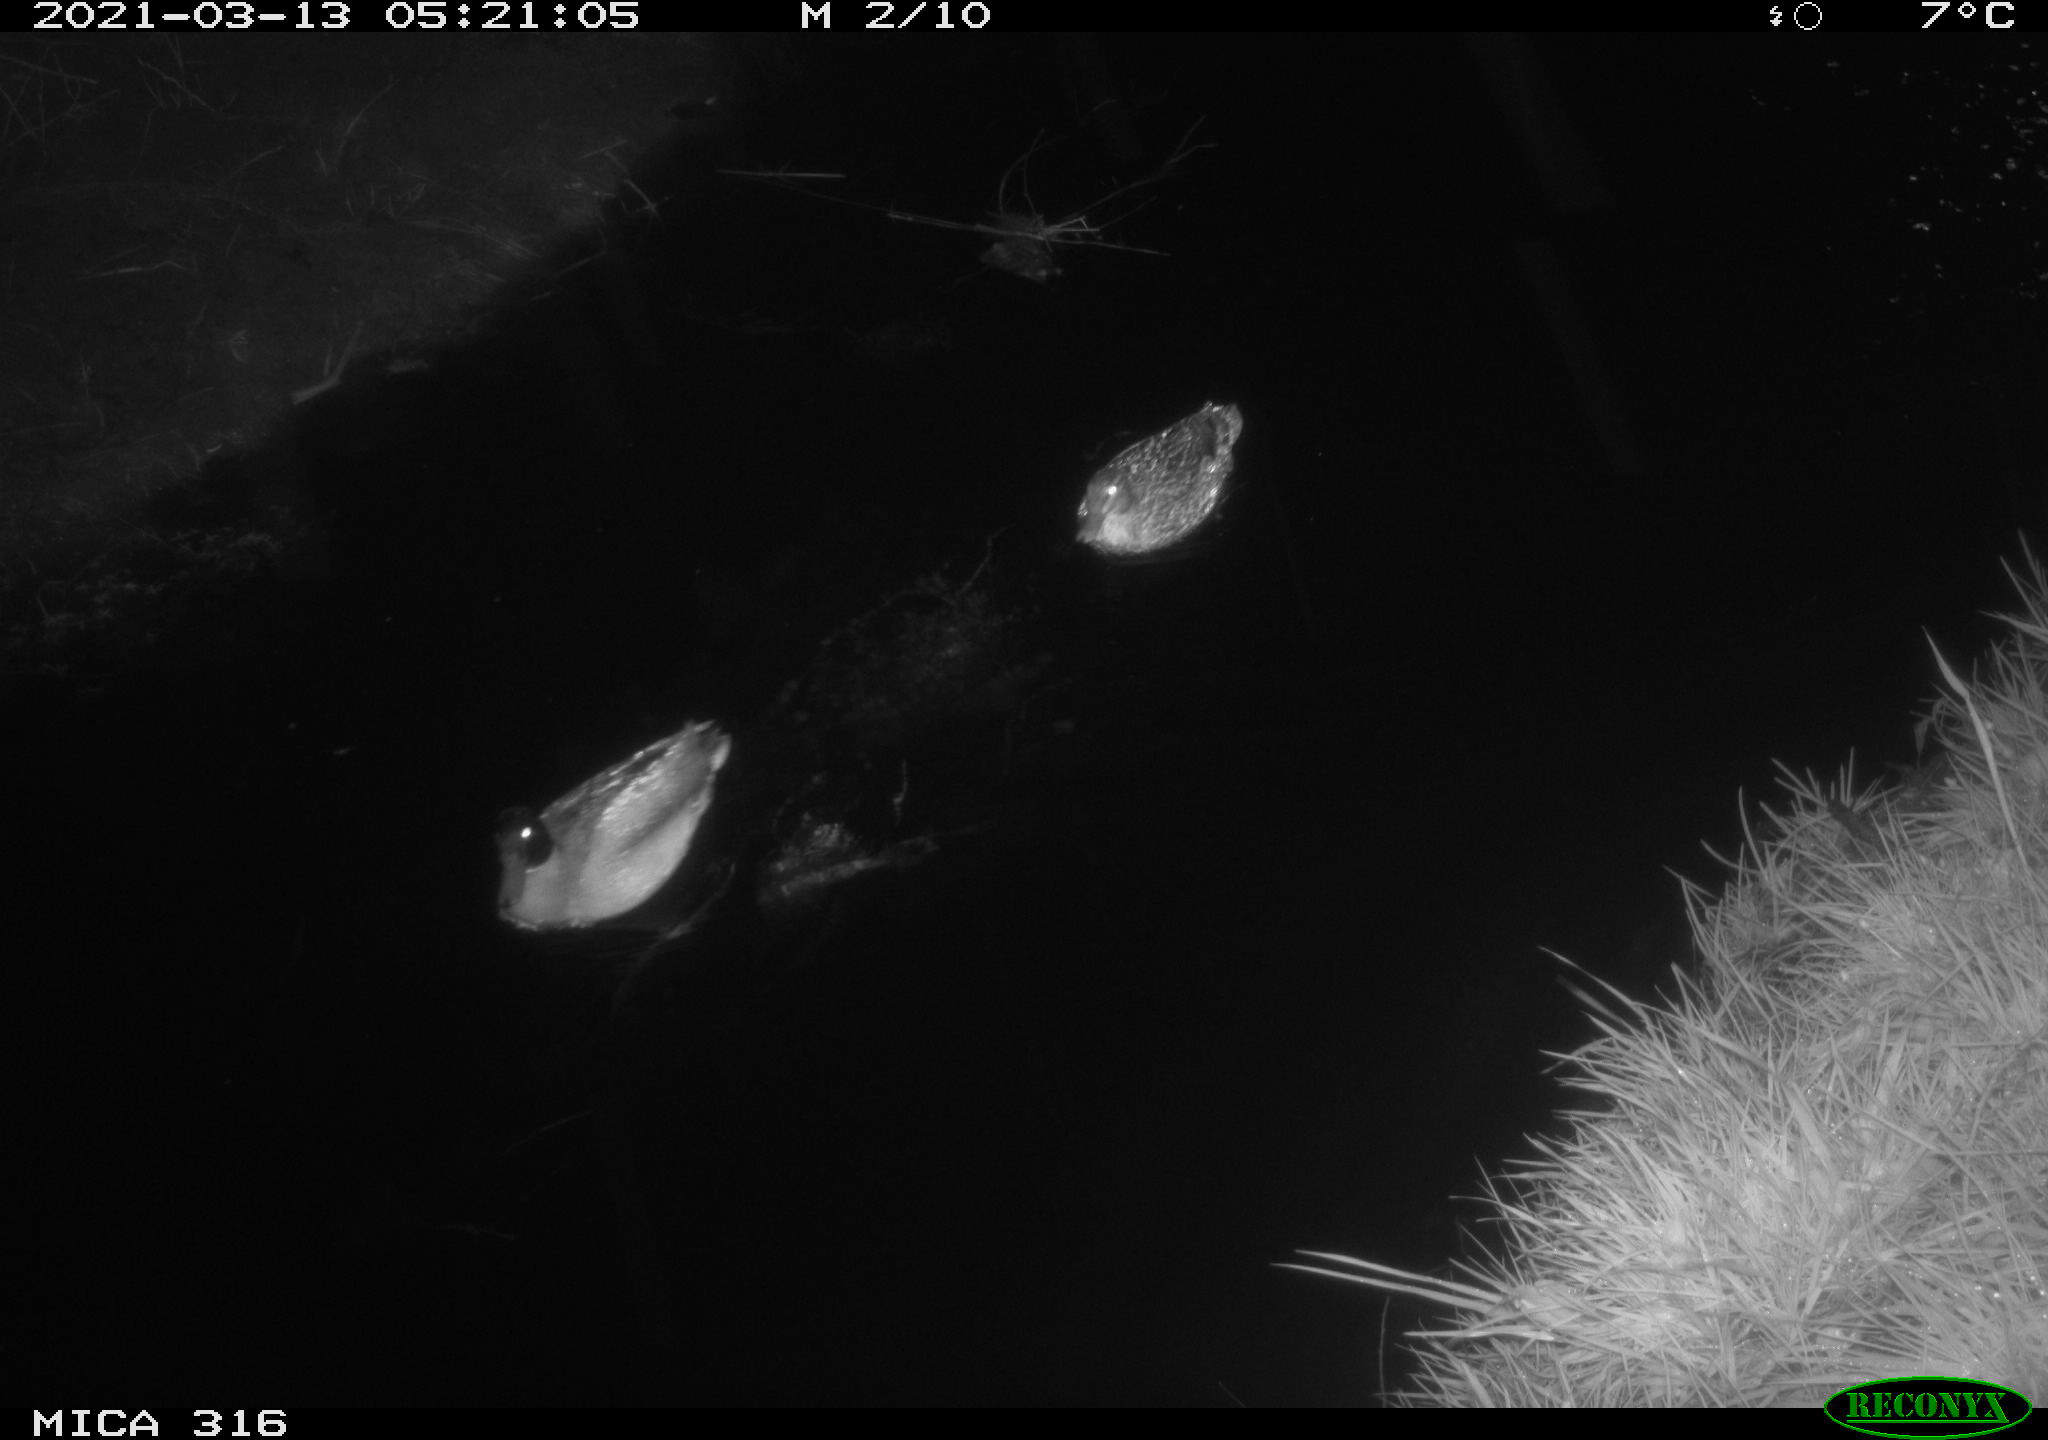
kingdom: Animalia
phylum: Chordata
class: Aves
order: Anseriformes
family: Anatidae
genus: Anas
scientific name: Anas platyrhynchos
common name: Mallard
